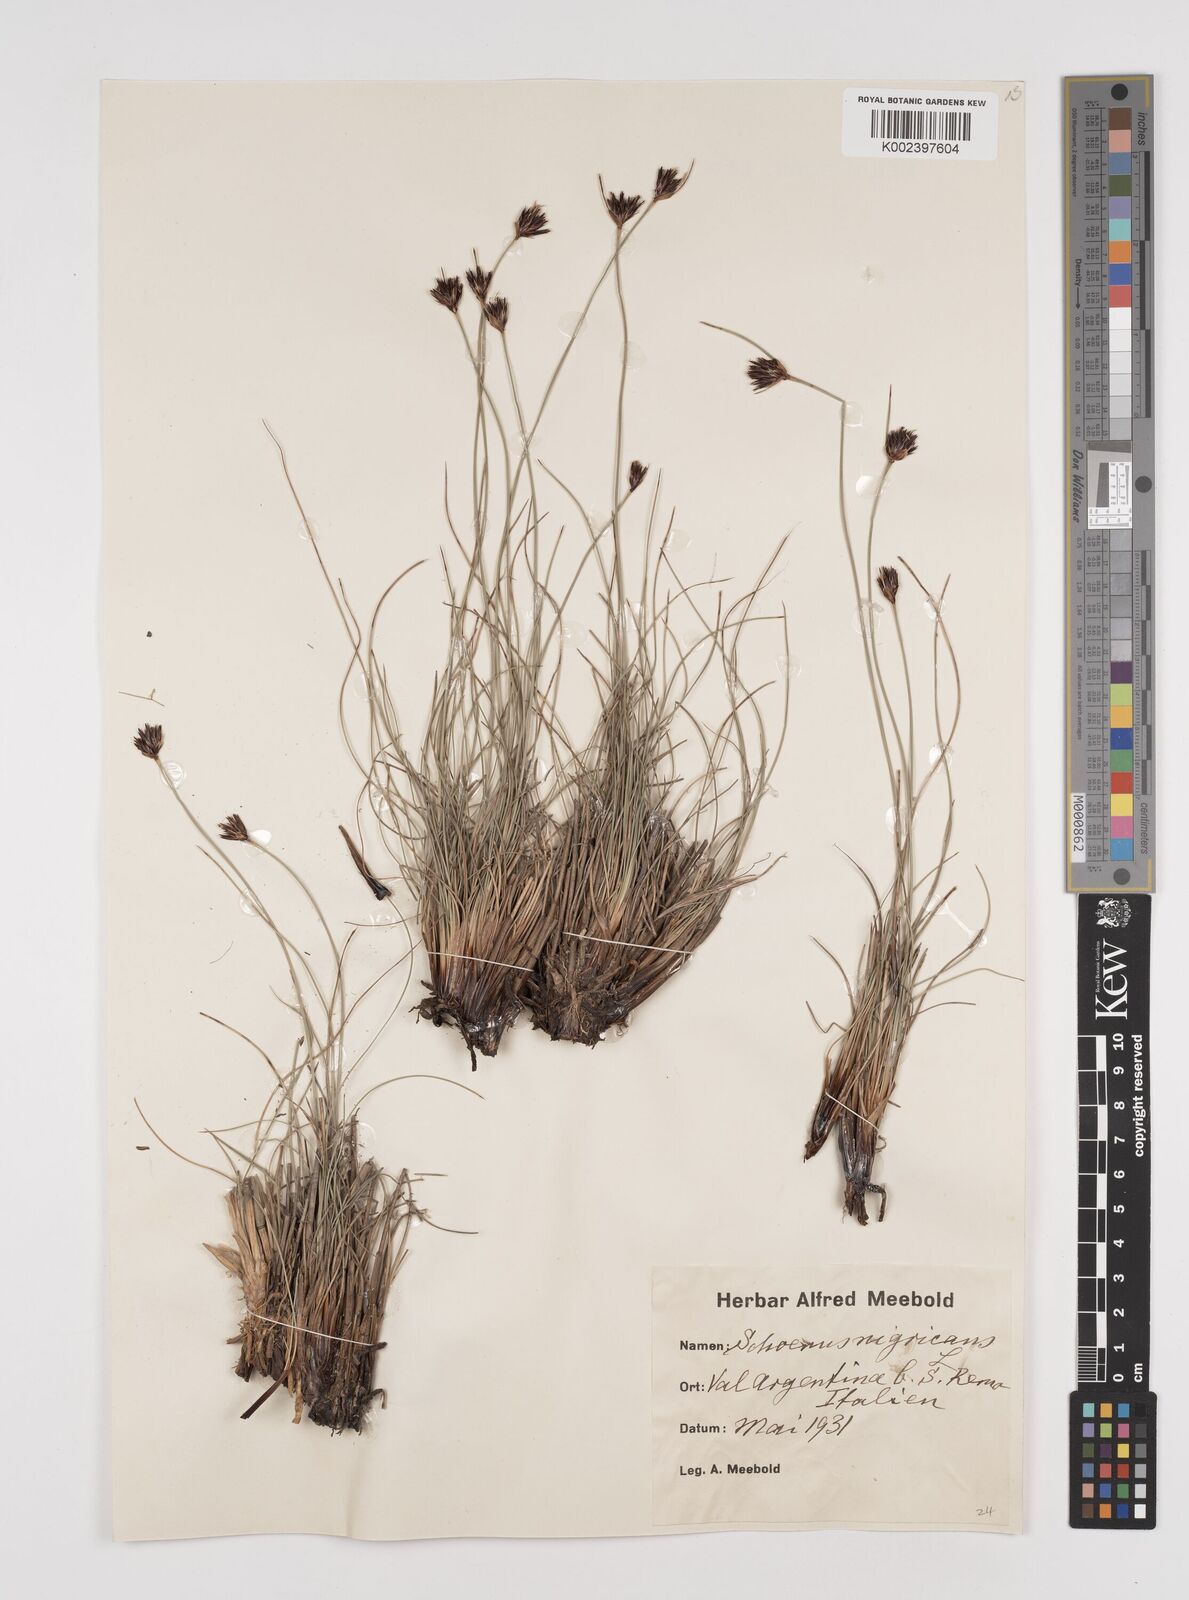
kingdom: Plantae
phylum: Tracheophyta
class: Liliopsida
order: Poales
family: Cyperaceae
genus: Schoenus
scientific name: Schoenus nigricans
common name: Black bog-rush
